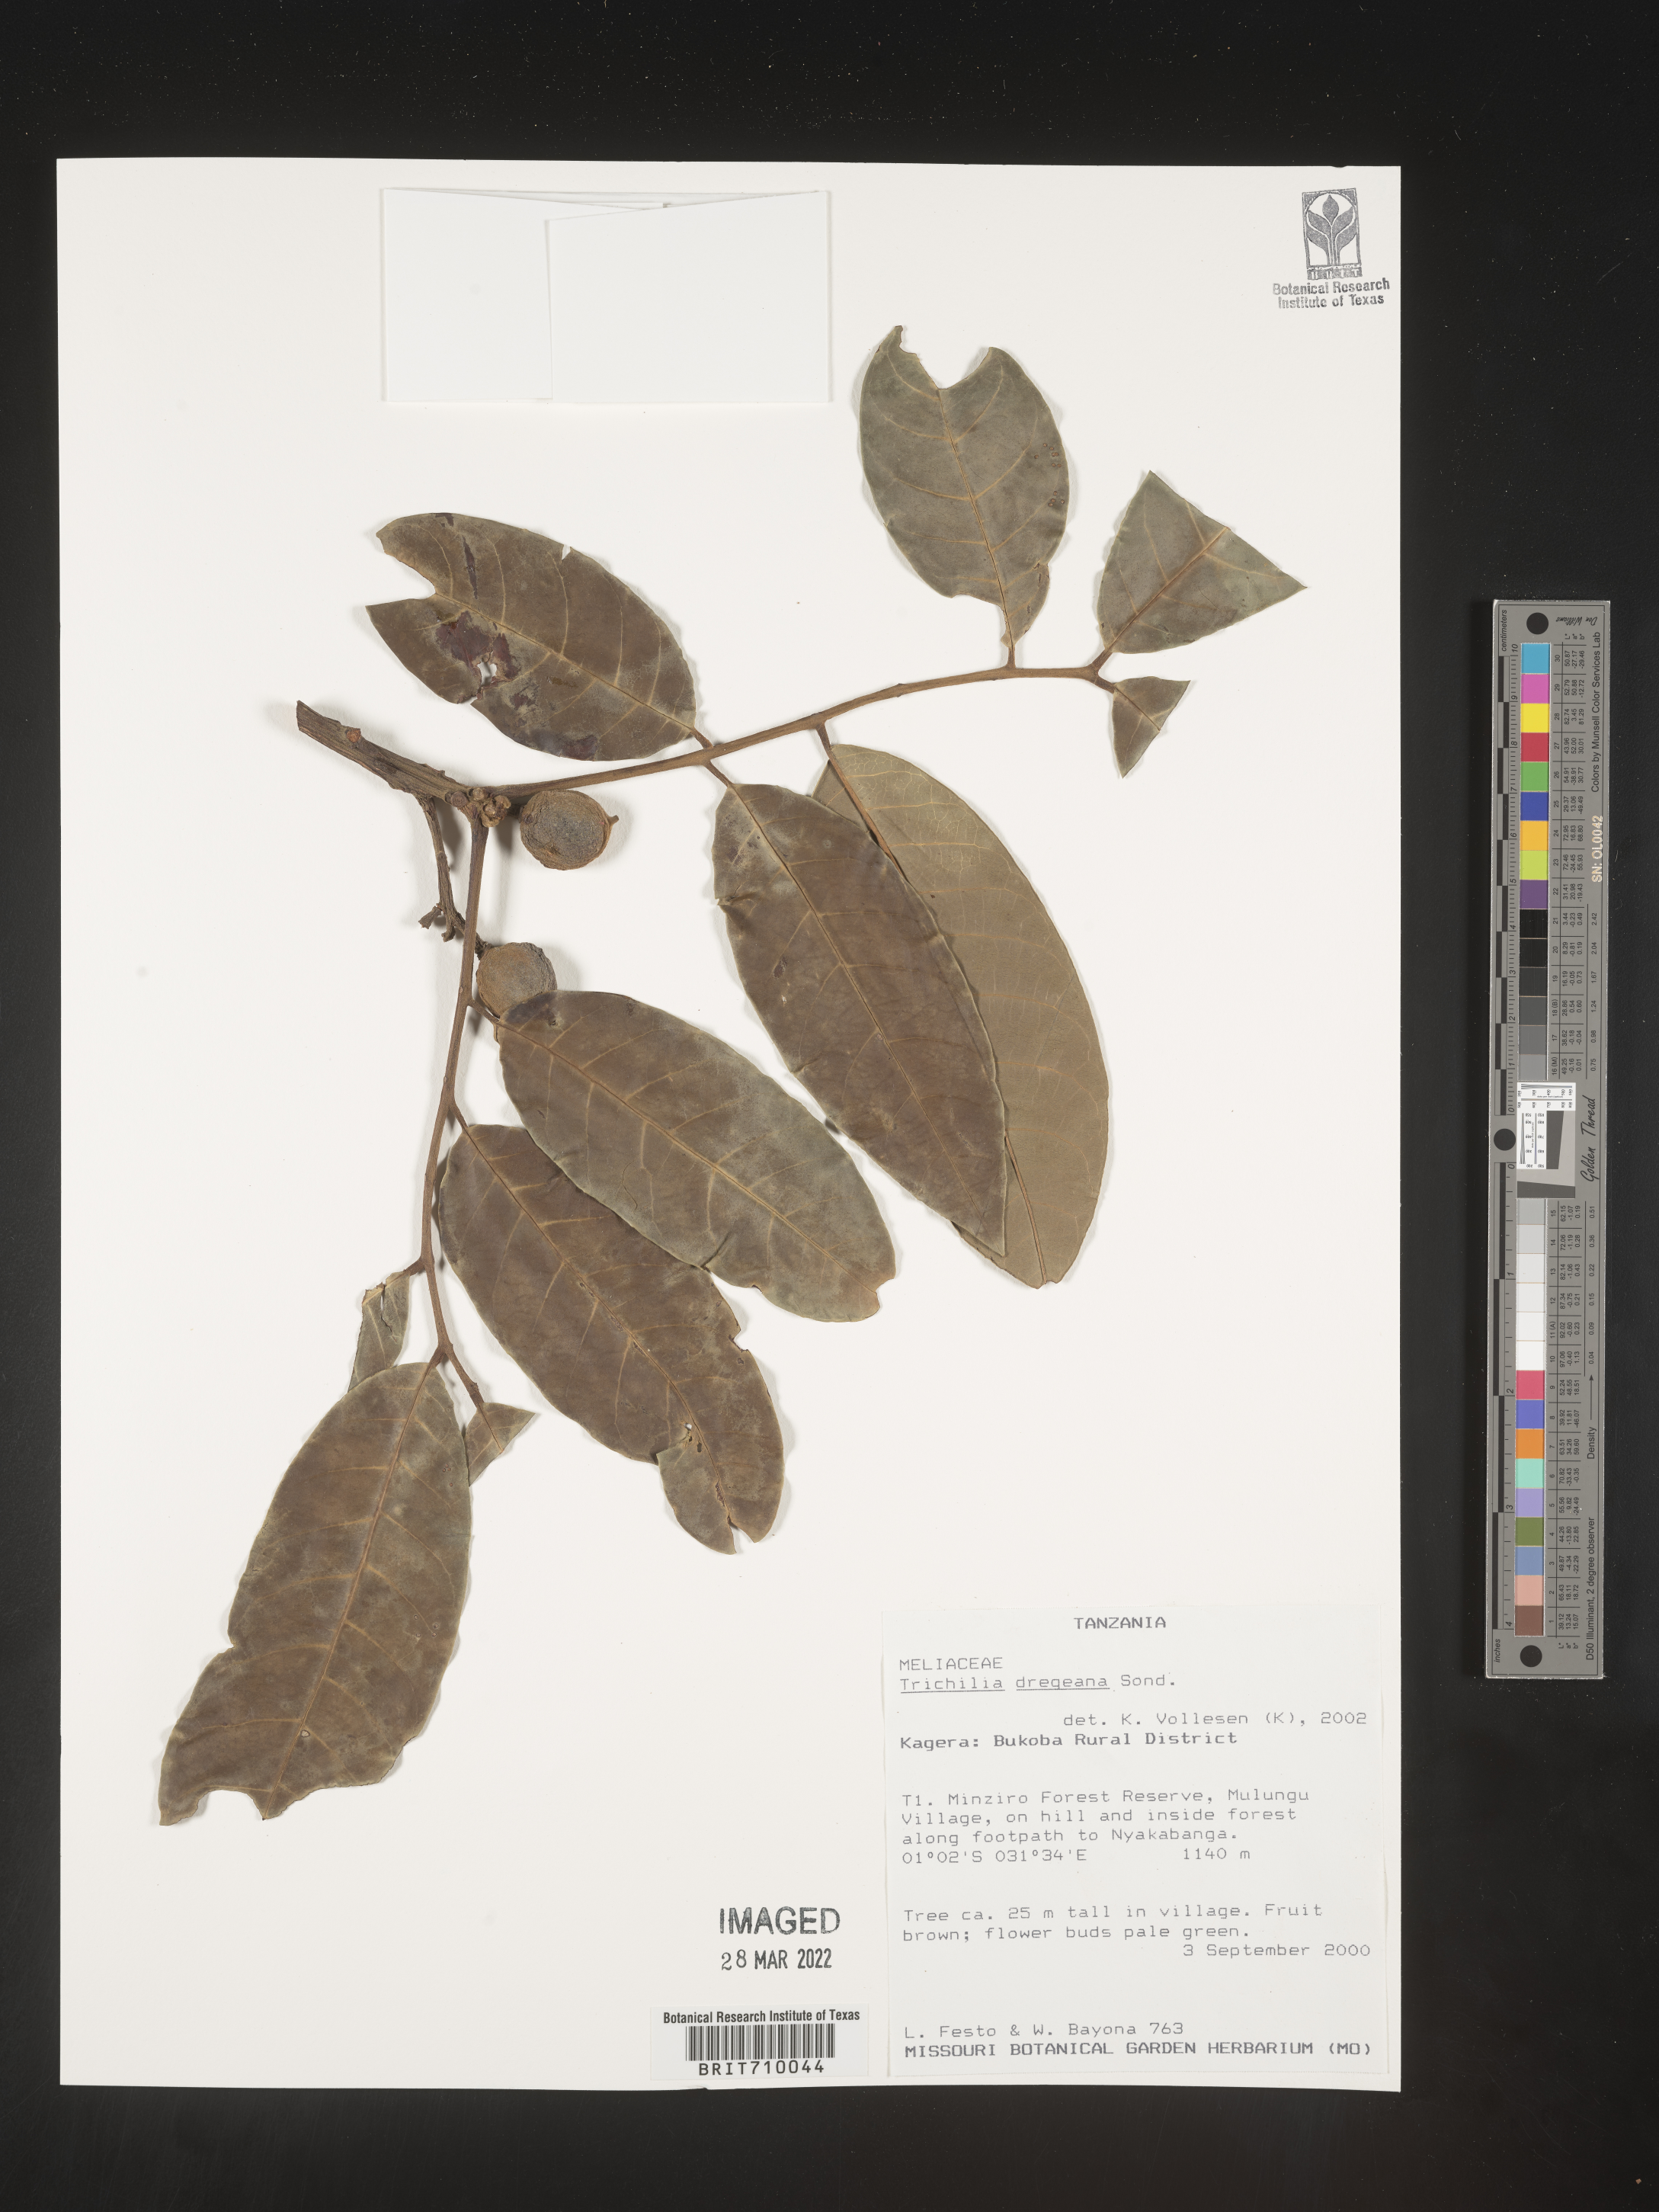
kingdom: Plantae
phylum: Tracheophyta
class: Magnoliopsida
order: Sapindales
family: Meliaceae
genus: Trichilia
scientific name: Trichilia
